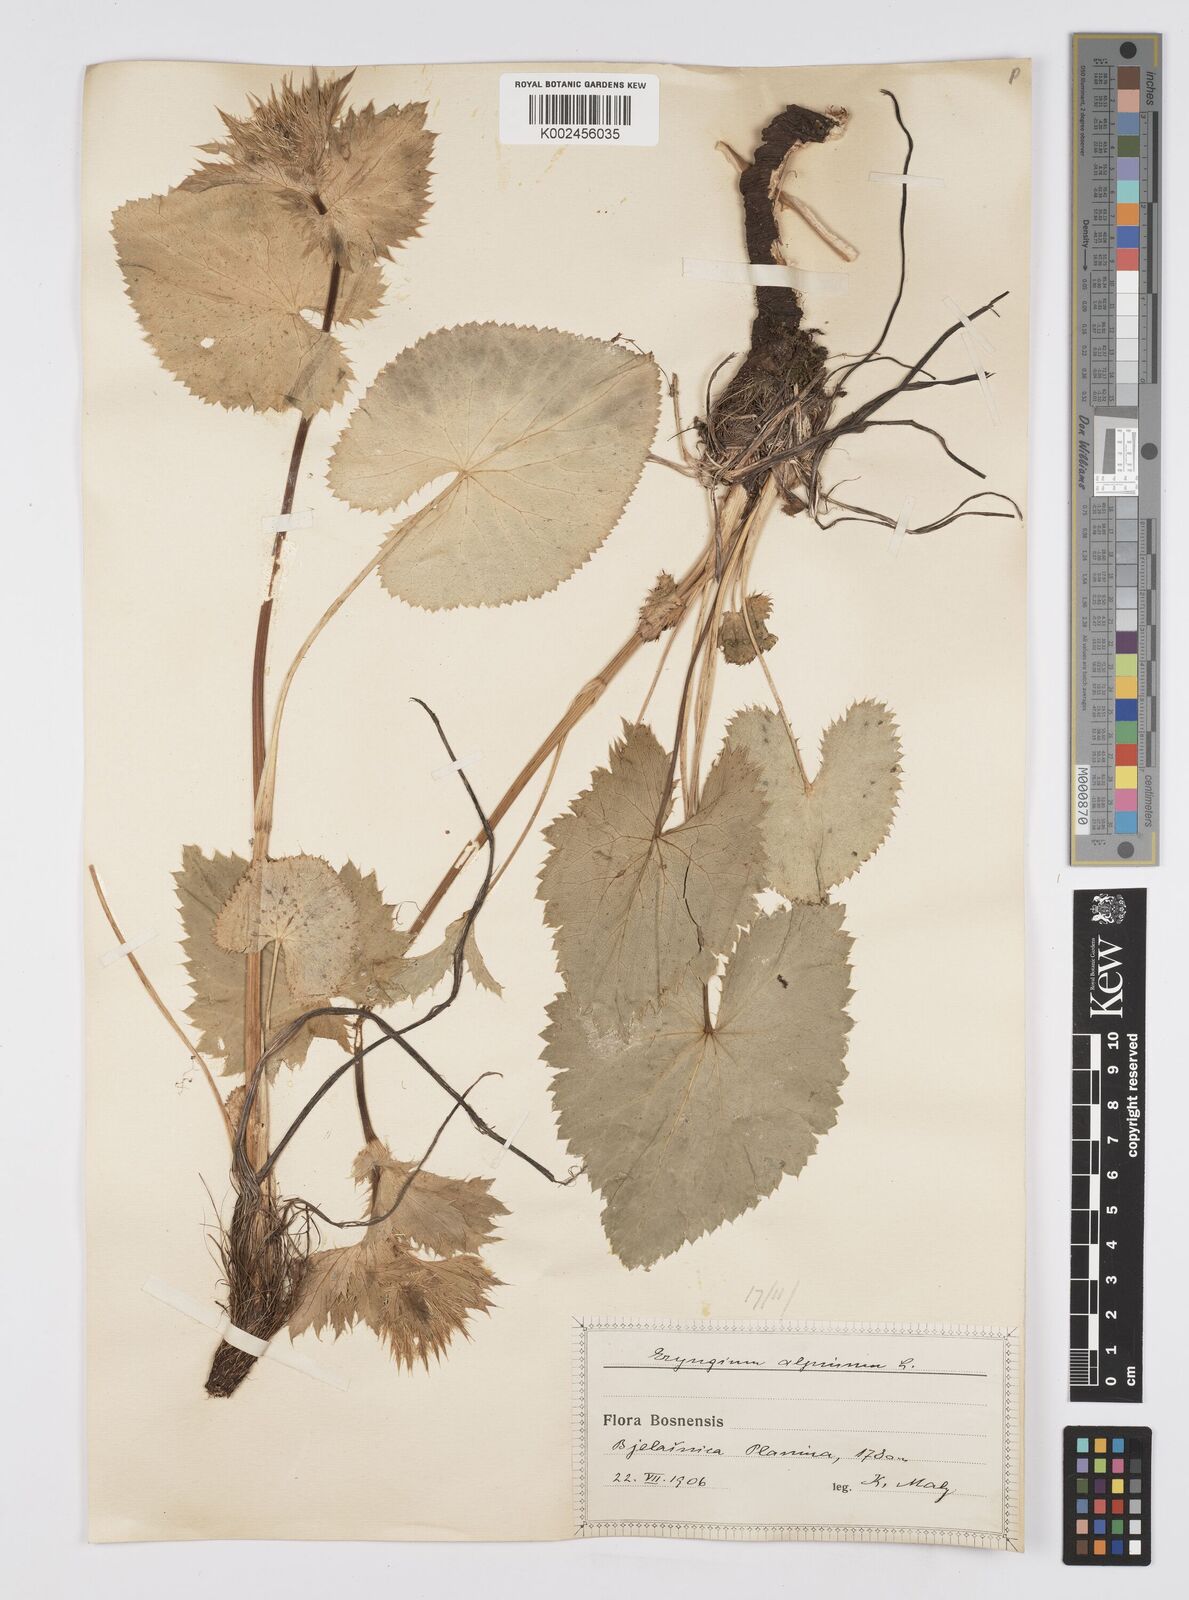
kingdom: Plantae
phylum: Tracheophyta
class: Magnoliopsida
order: Apiales
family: Apiaceae
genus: Eryngium
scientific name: Eryngium
